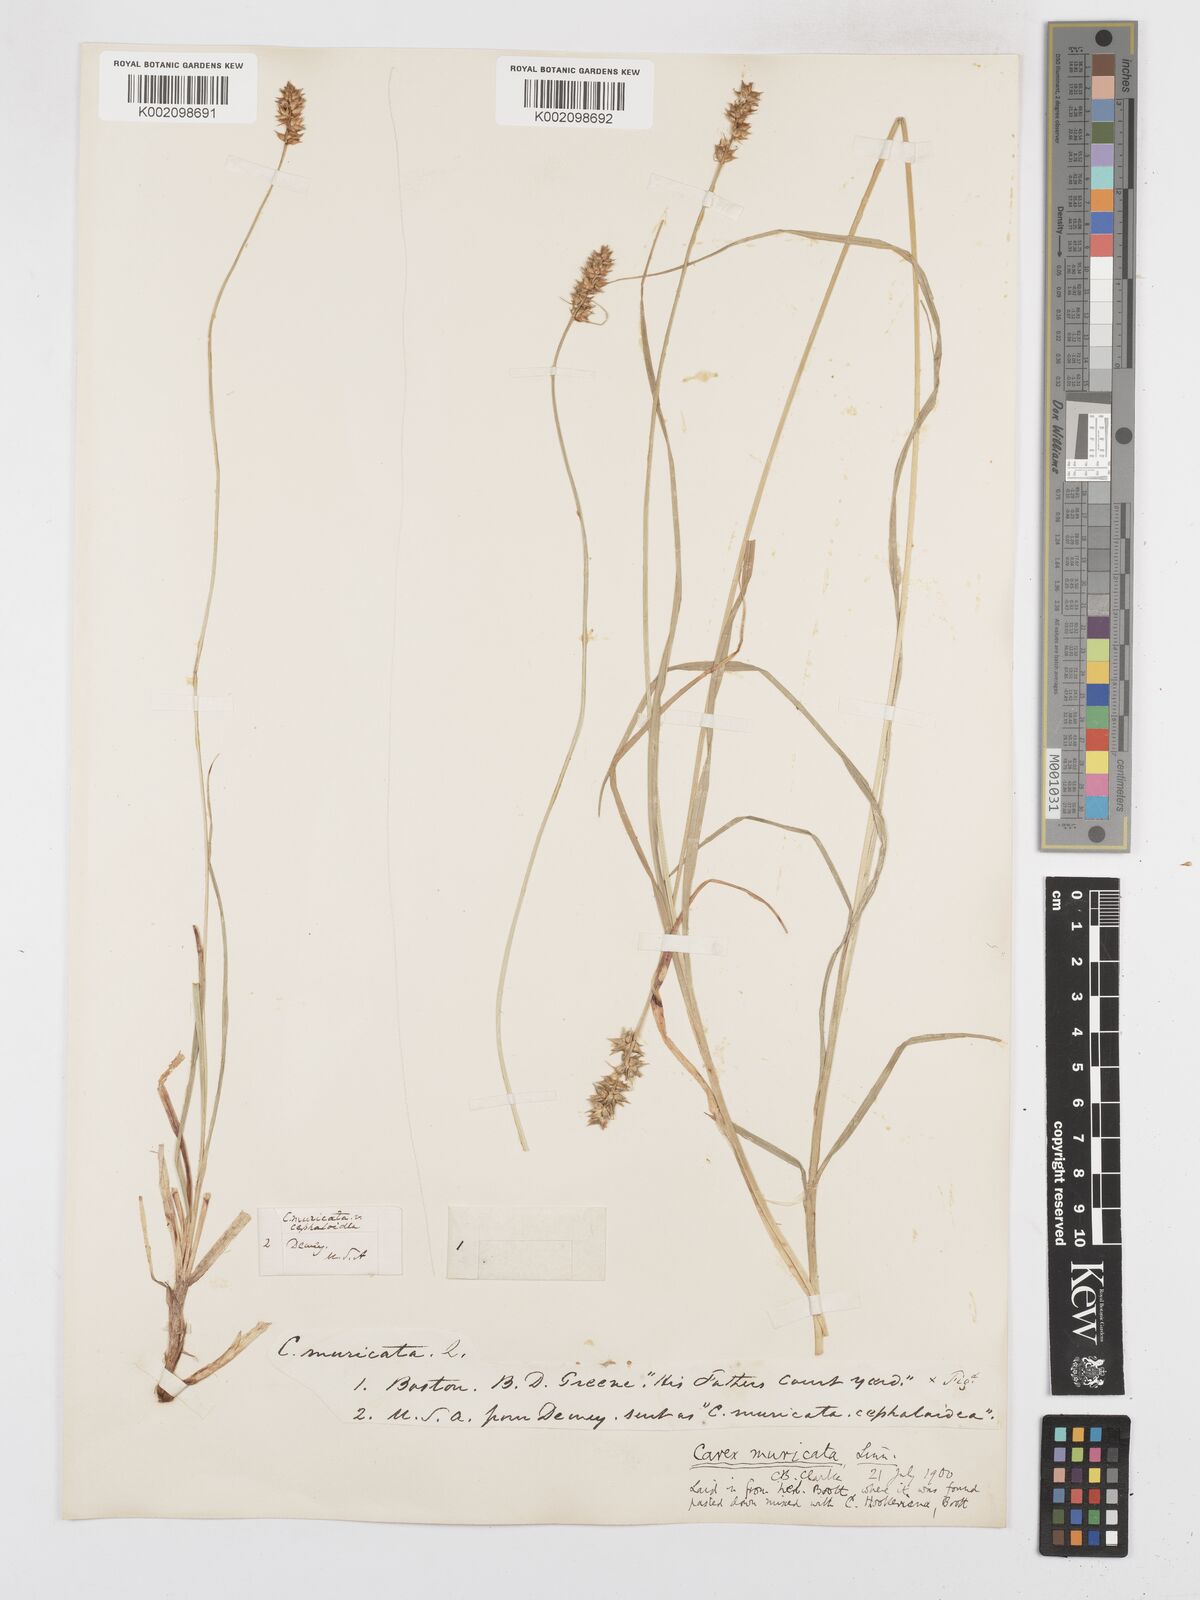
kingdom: Plantae
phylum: Tracheophyta
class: Liliopsida
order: Poales
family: Cyperaceae
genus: Carex
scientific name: Carex spicata
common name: Spiked sedge
